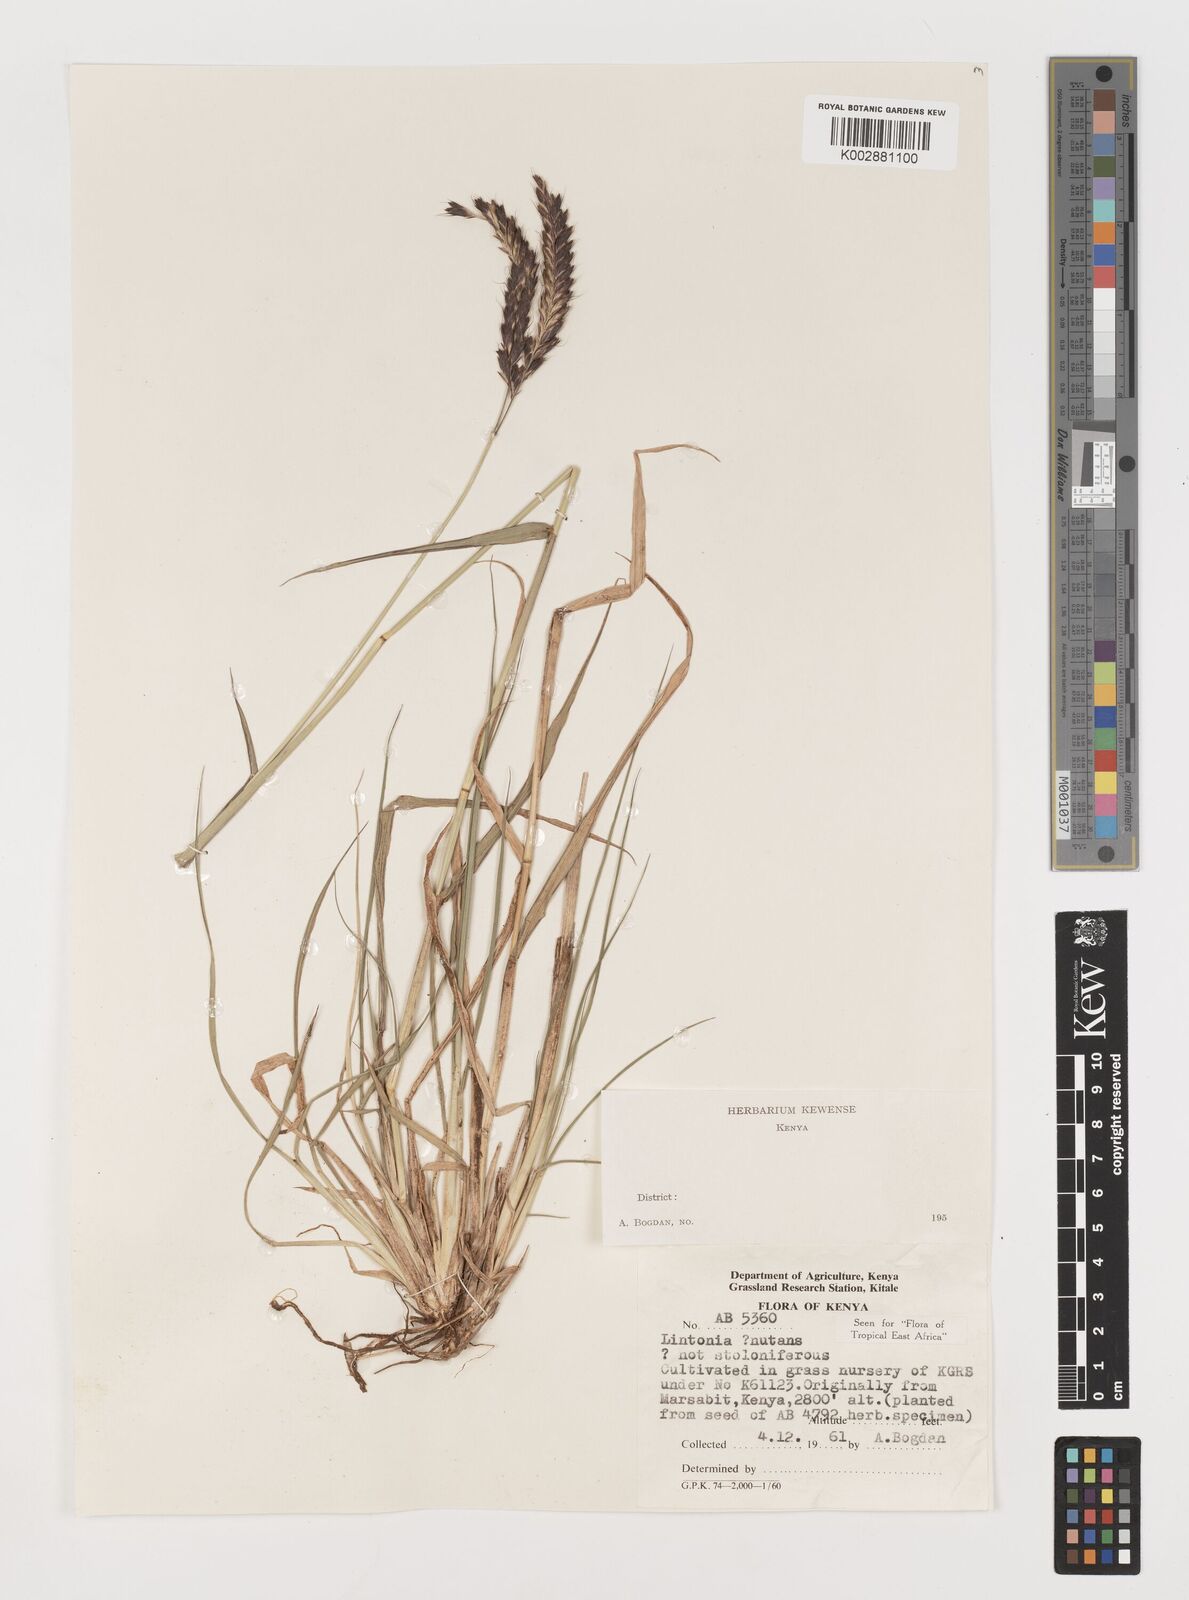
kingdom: Plantae
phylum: Tracheophyta
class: Liliopsida
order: Poales
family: Poaceae
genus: Chloris
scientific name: Chloris nutans
